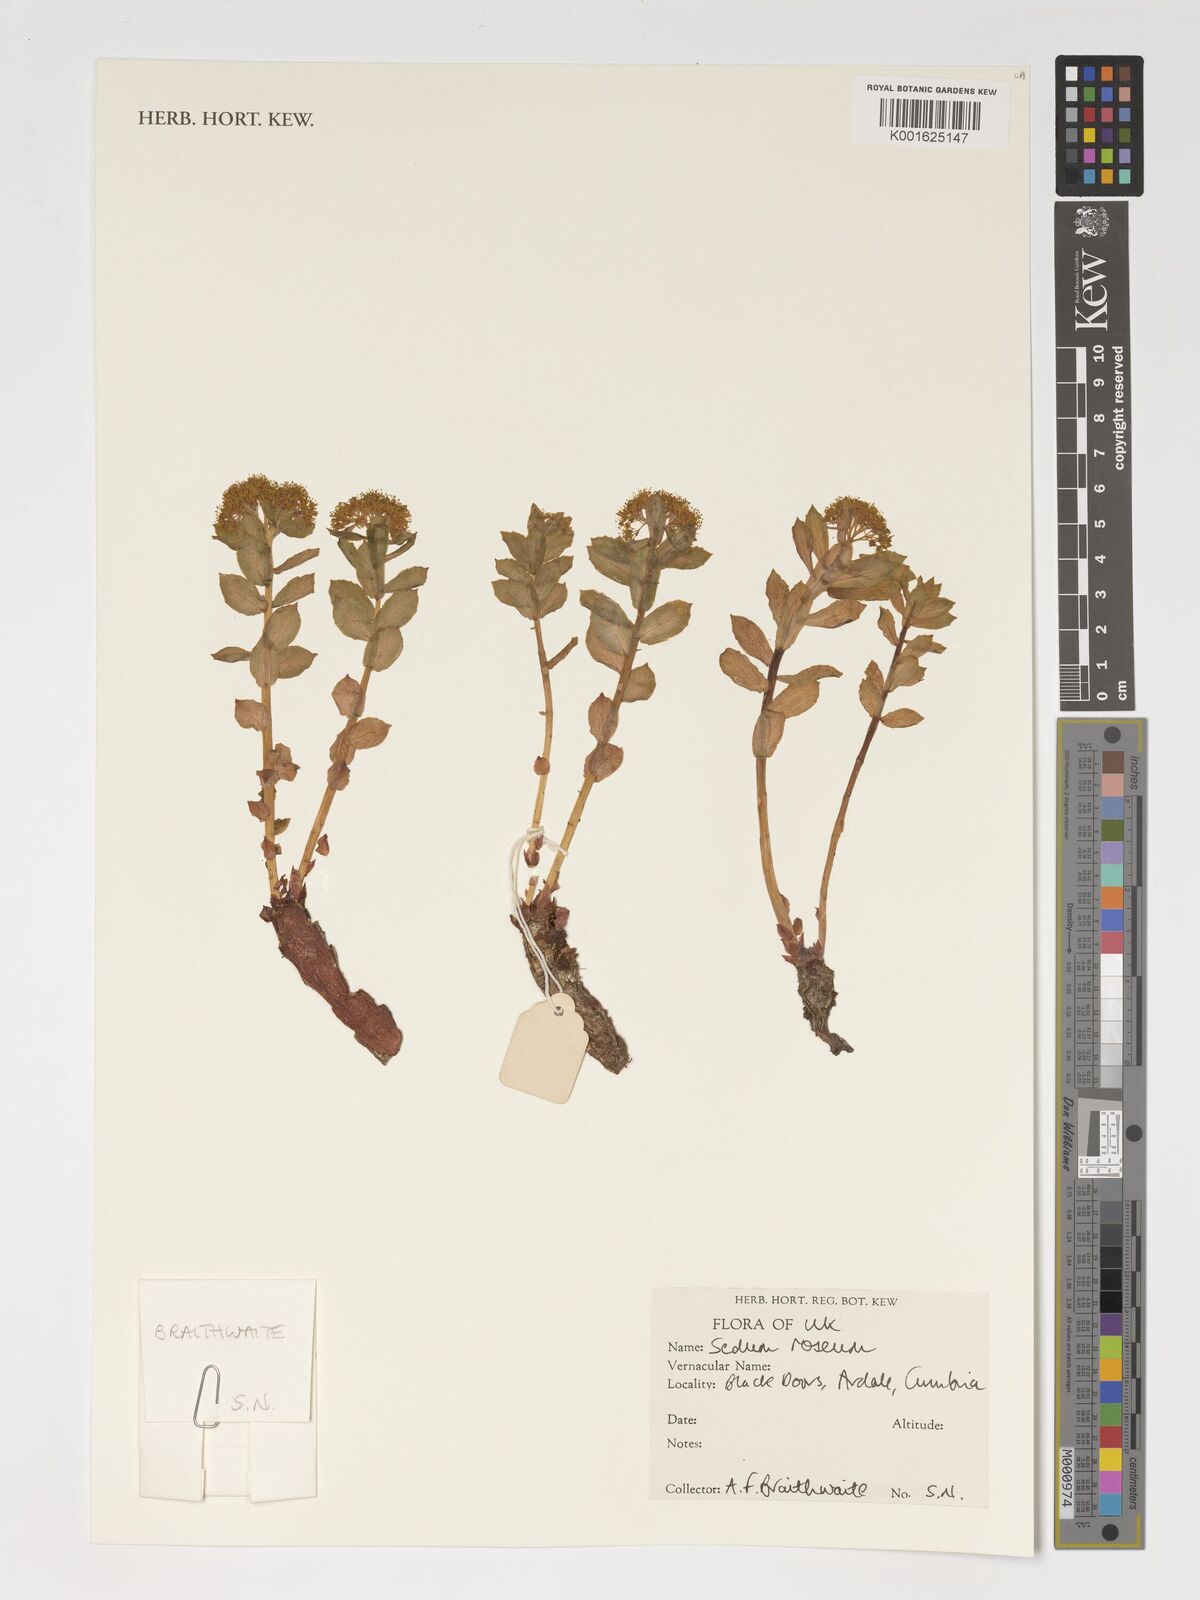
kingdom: Plantae
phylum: Tracheophyta
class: Magnoliopsida
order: Saxifragales
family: Crassulaceae
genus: Phedimus
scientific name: Phedimus stevenianus
